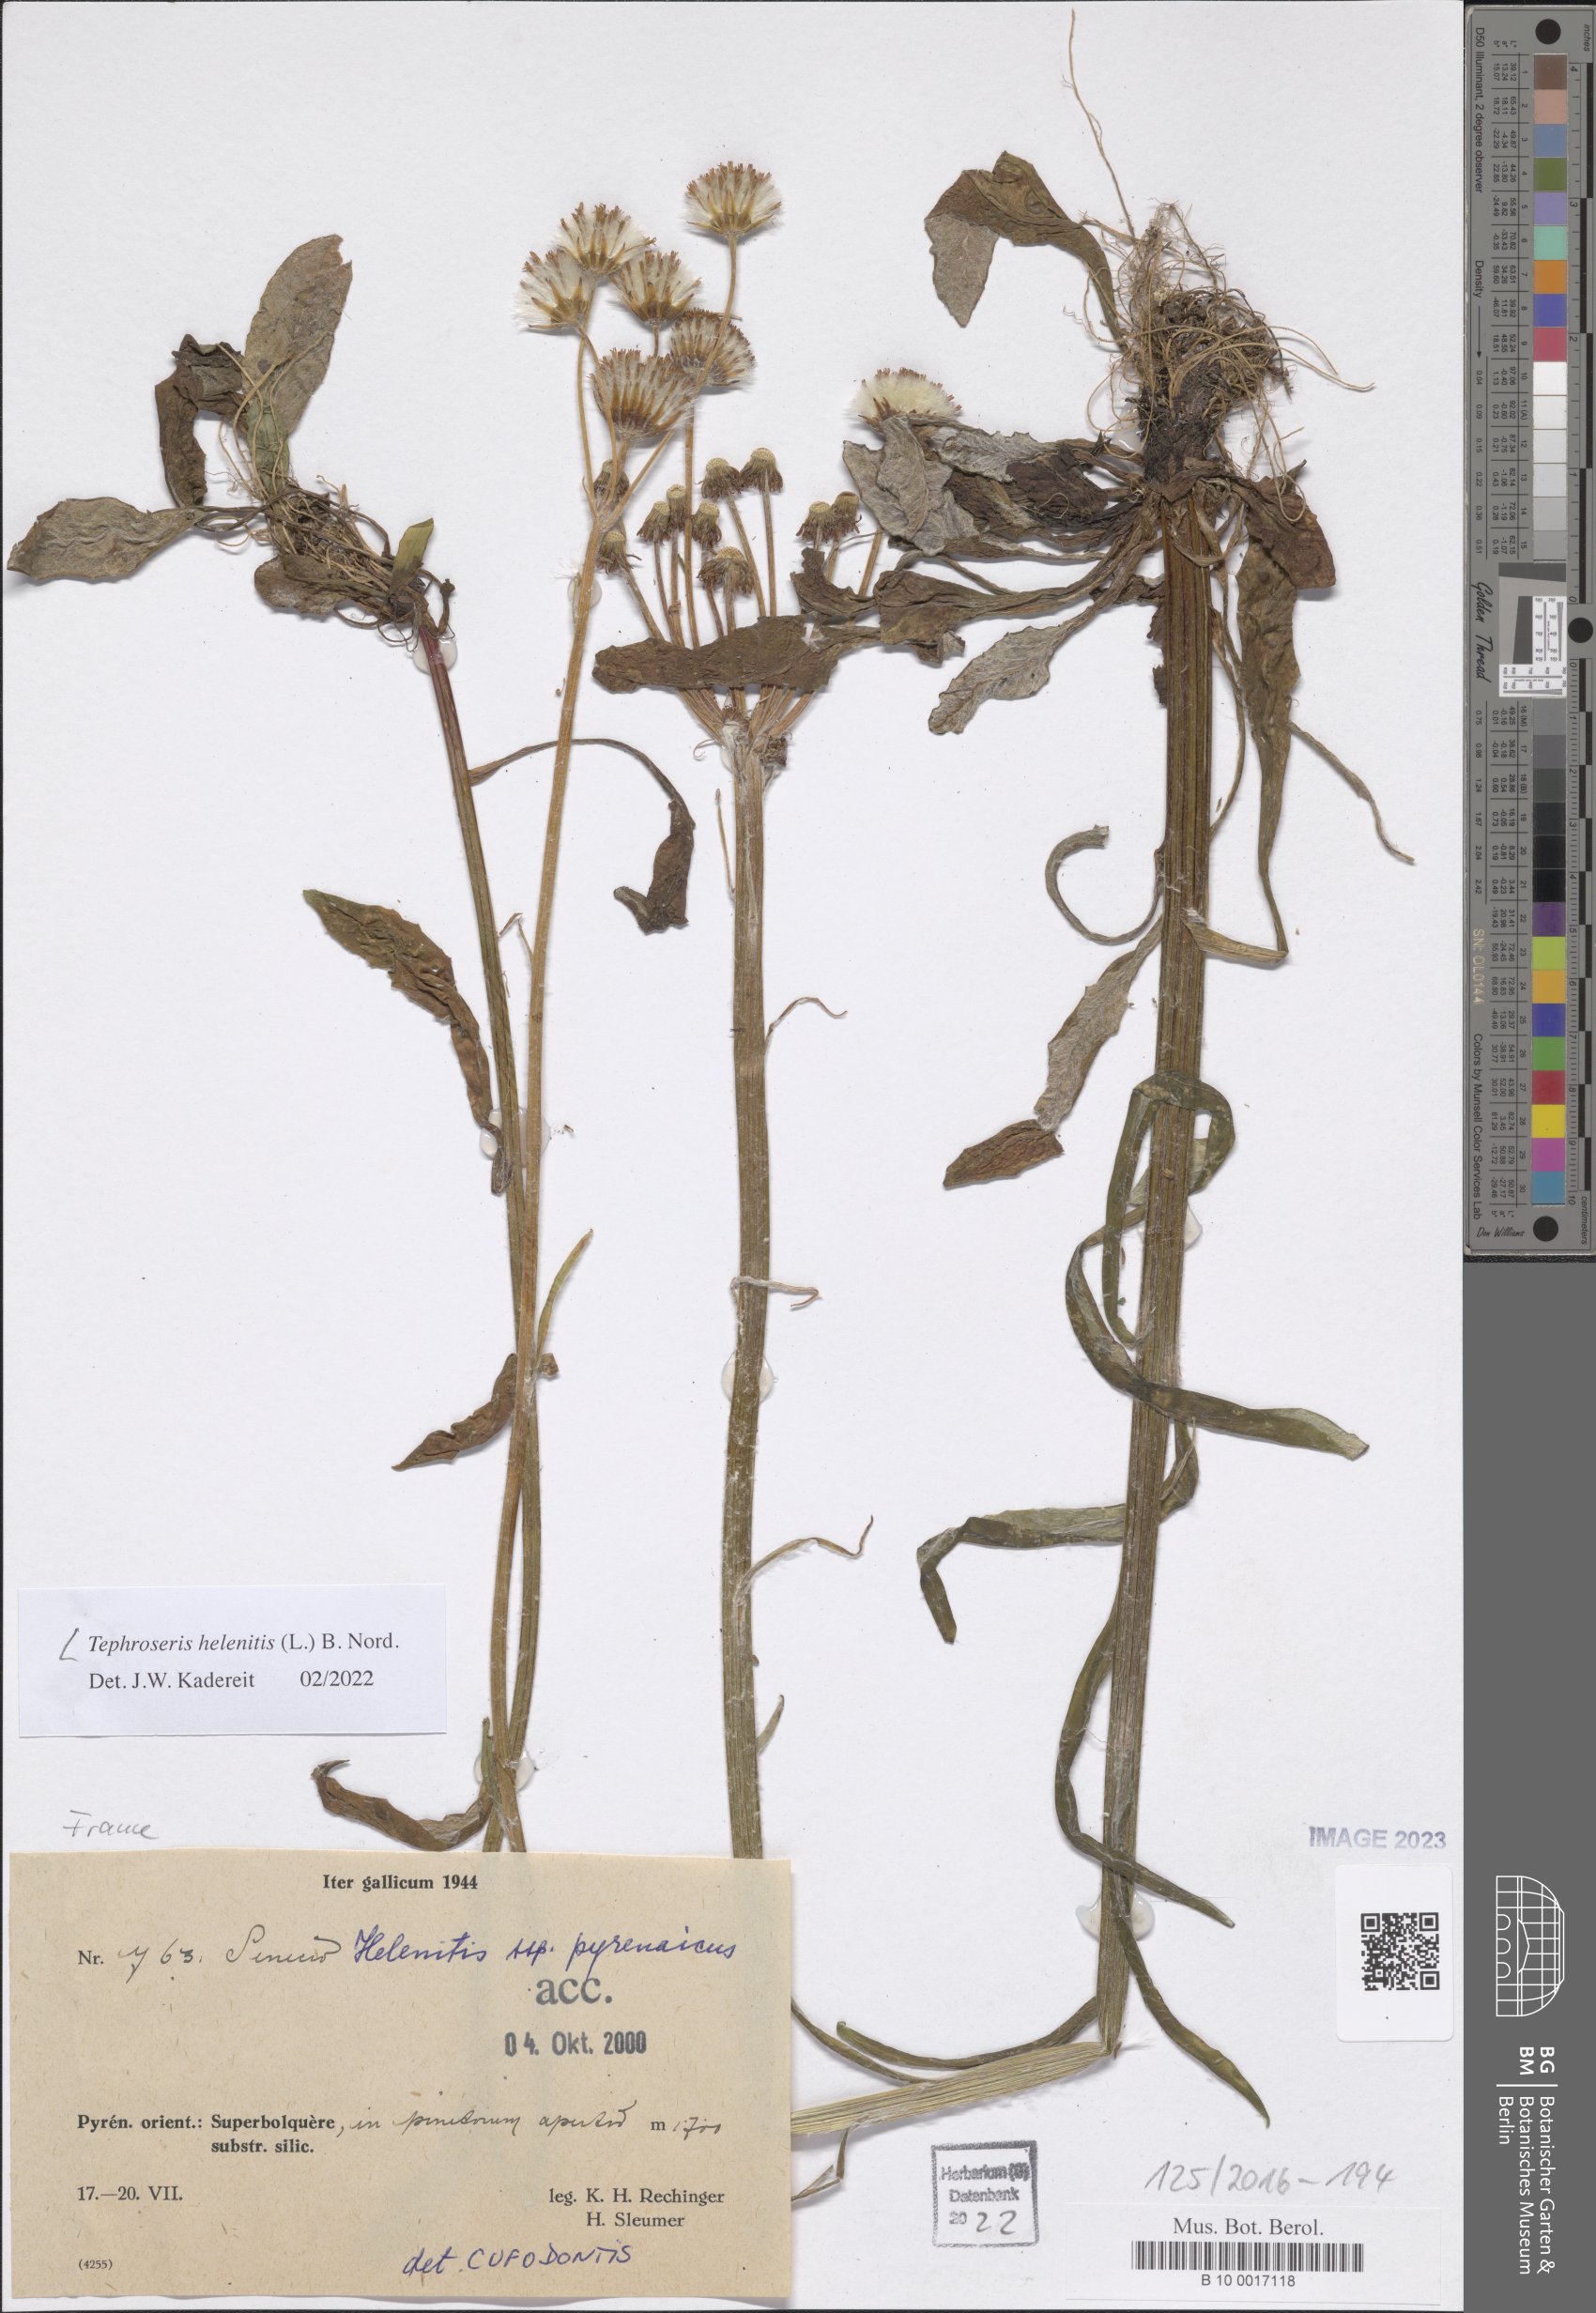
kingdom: Plantae
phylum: Tracheophyta
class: Magnoliopsida
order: Asterales
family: Asteraceae
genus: Tephroseris
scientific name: Tephroseris helenitis
